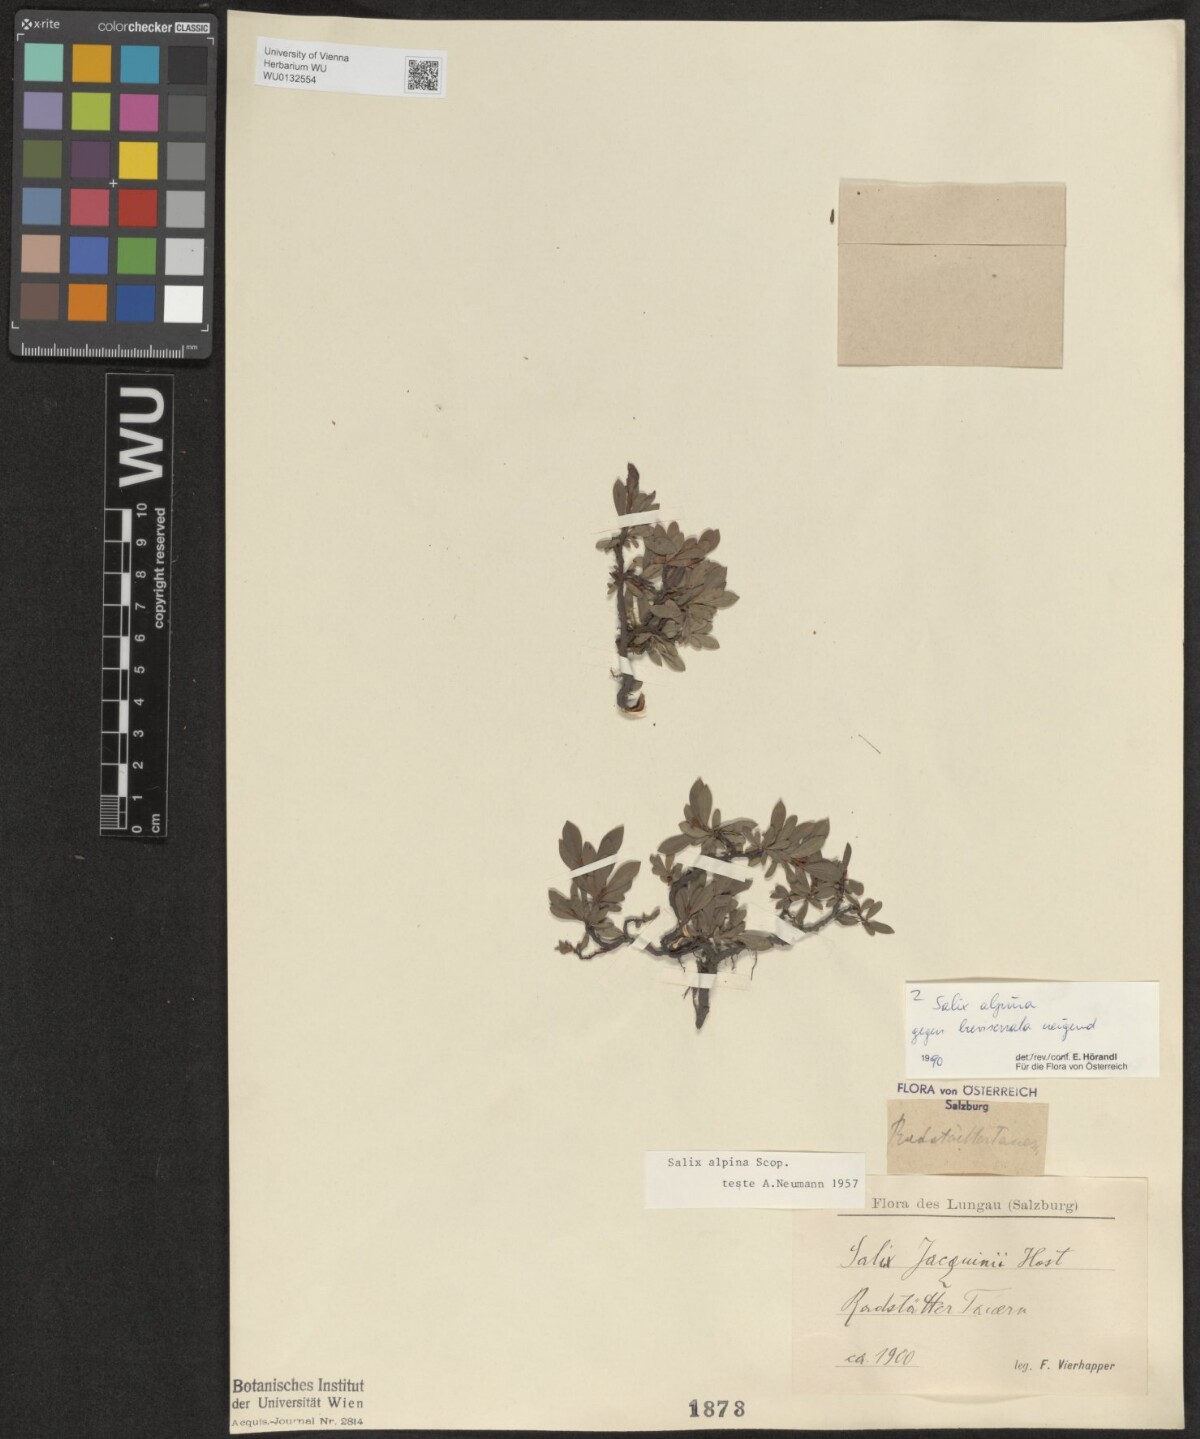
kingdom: Plantae
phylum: Tracheophyta
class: Magnoliopsida
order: Malpighiales
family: Salicaceae
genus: Salix
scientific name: Salix alpina
